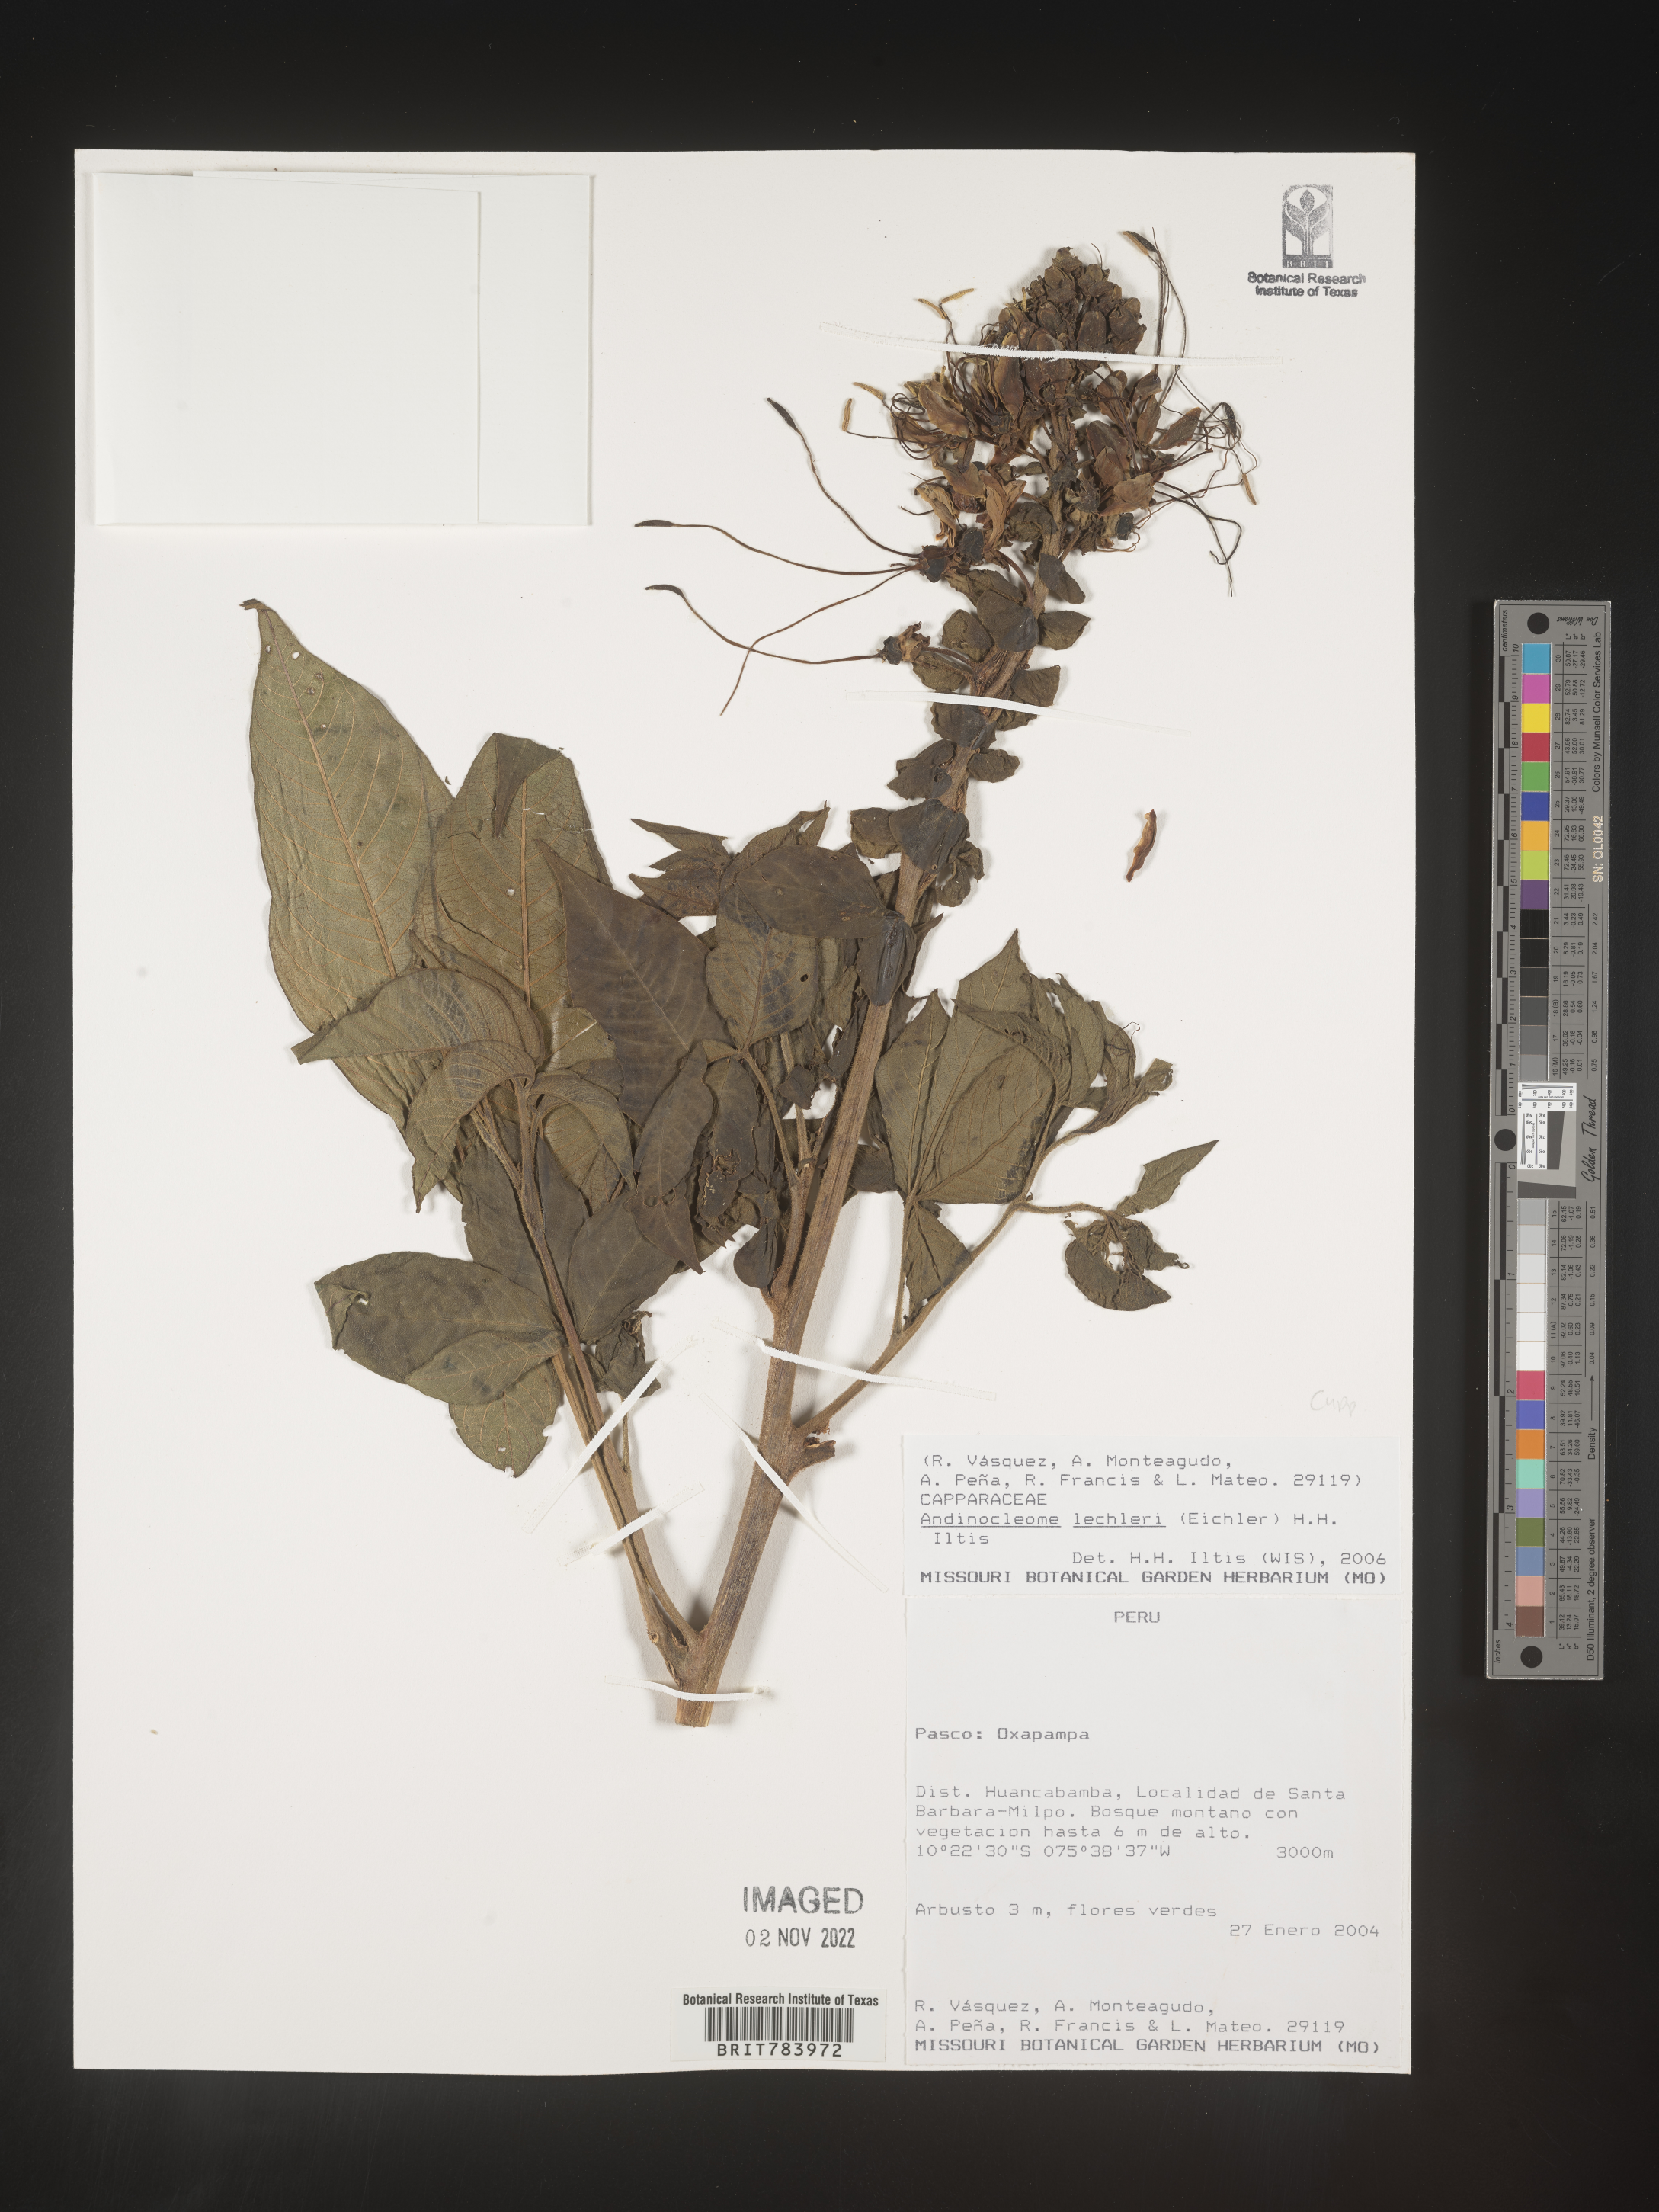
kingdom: Plantae
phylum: Tracheophyta
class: Magnoliopsida
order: Brassicales
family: Cleomaceae
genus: Andinocleome
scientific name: Andinocleome
